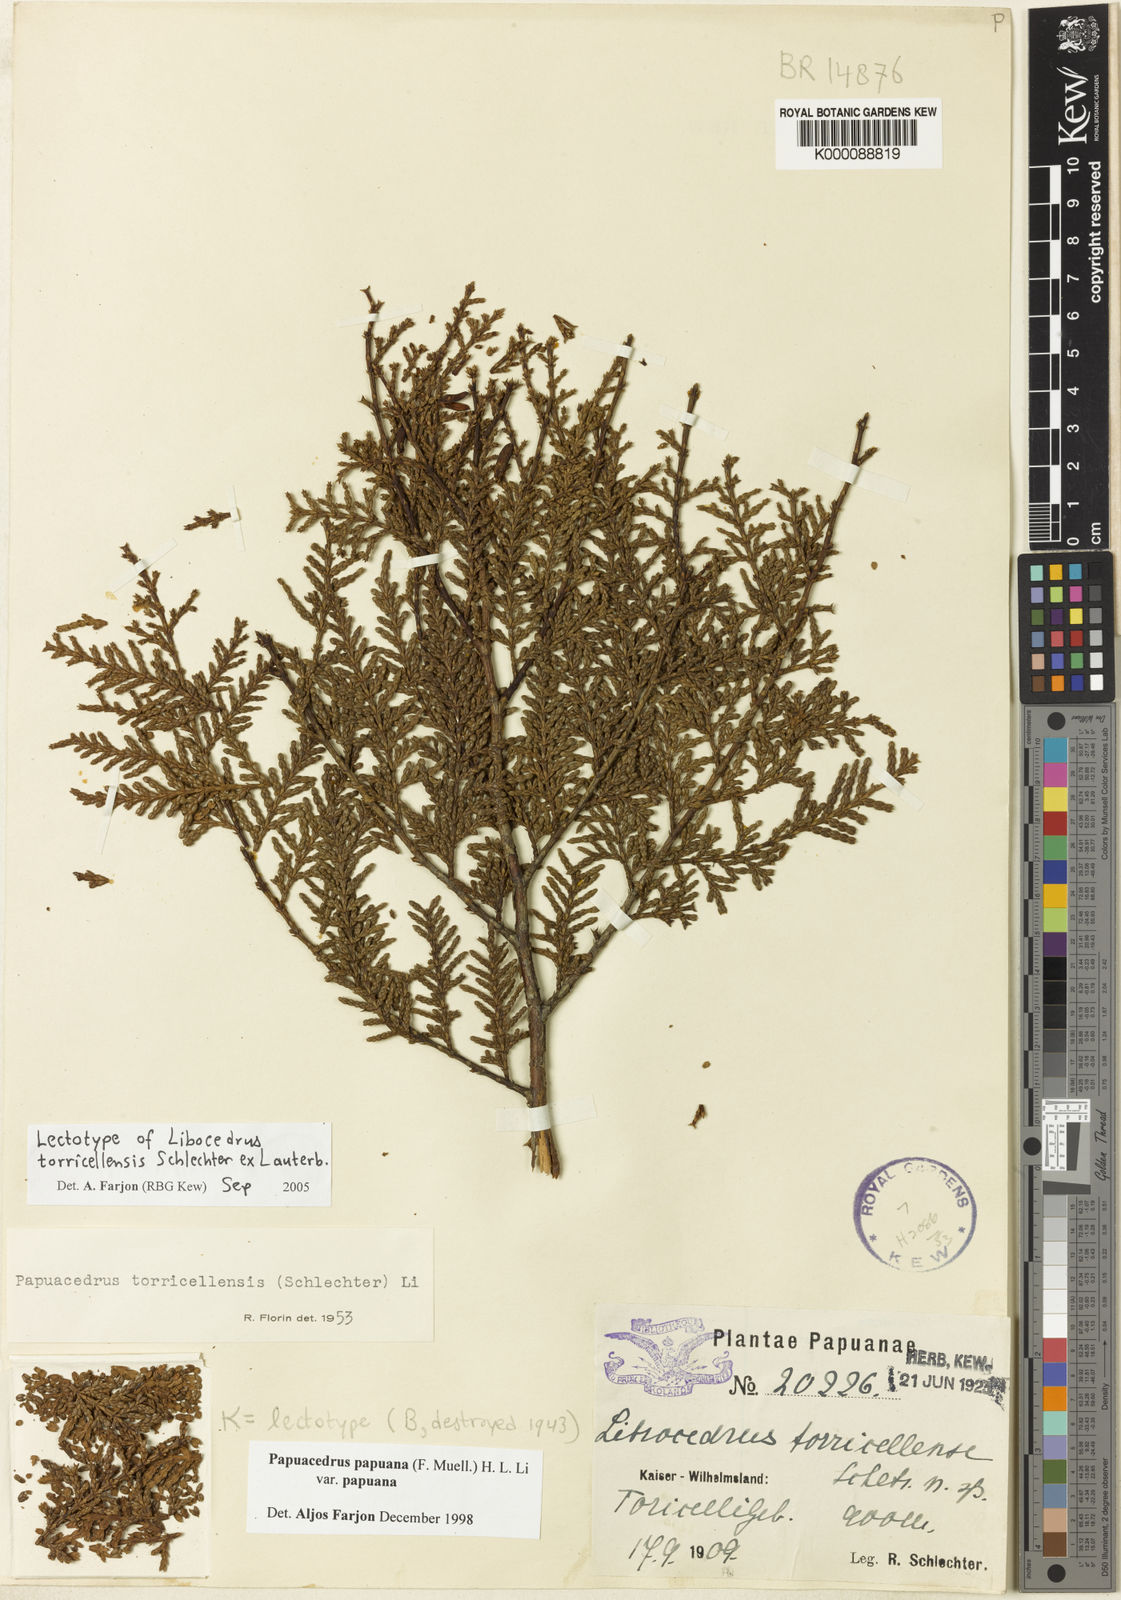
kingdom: Plantae
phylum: Tracheophyta
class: Pinopsida
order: Pinales
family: Cupressaceae
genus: Papuacedrus
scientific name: Papuacedrus papuana
